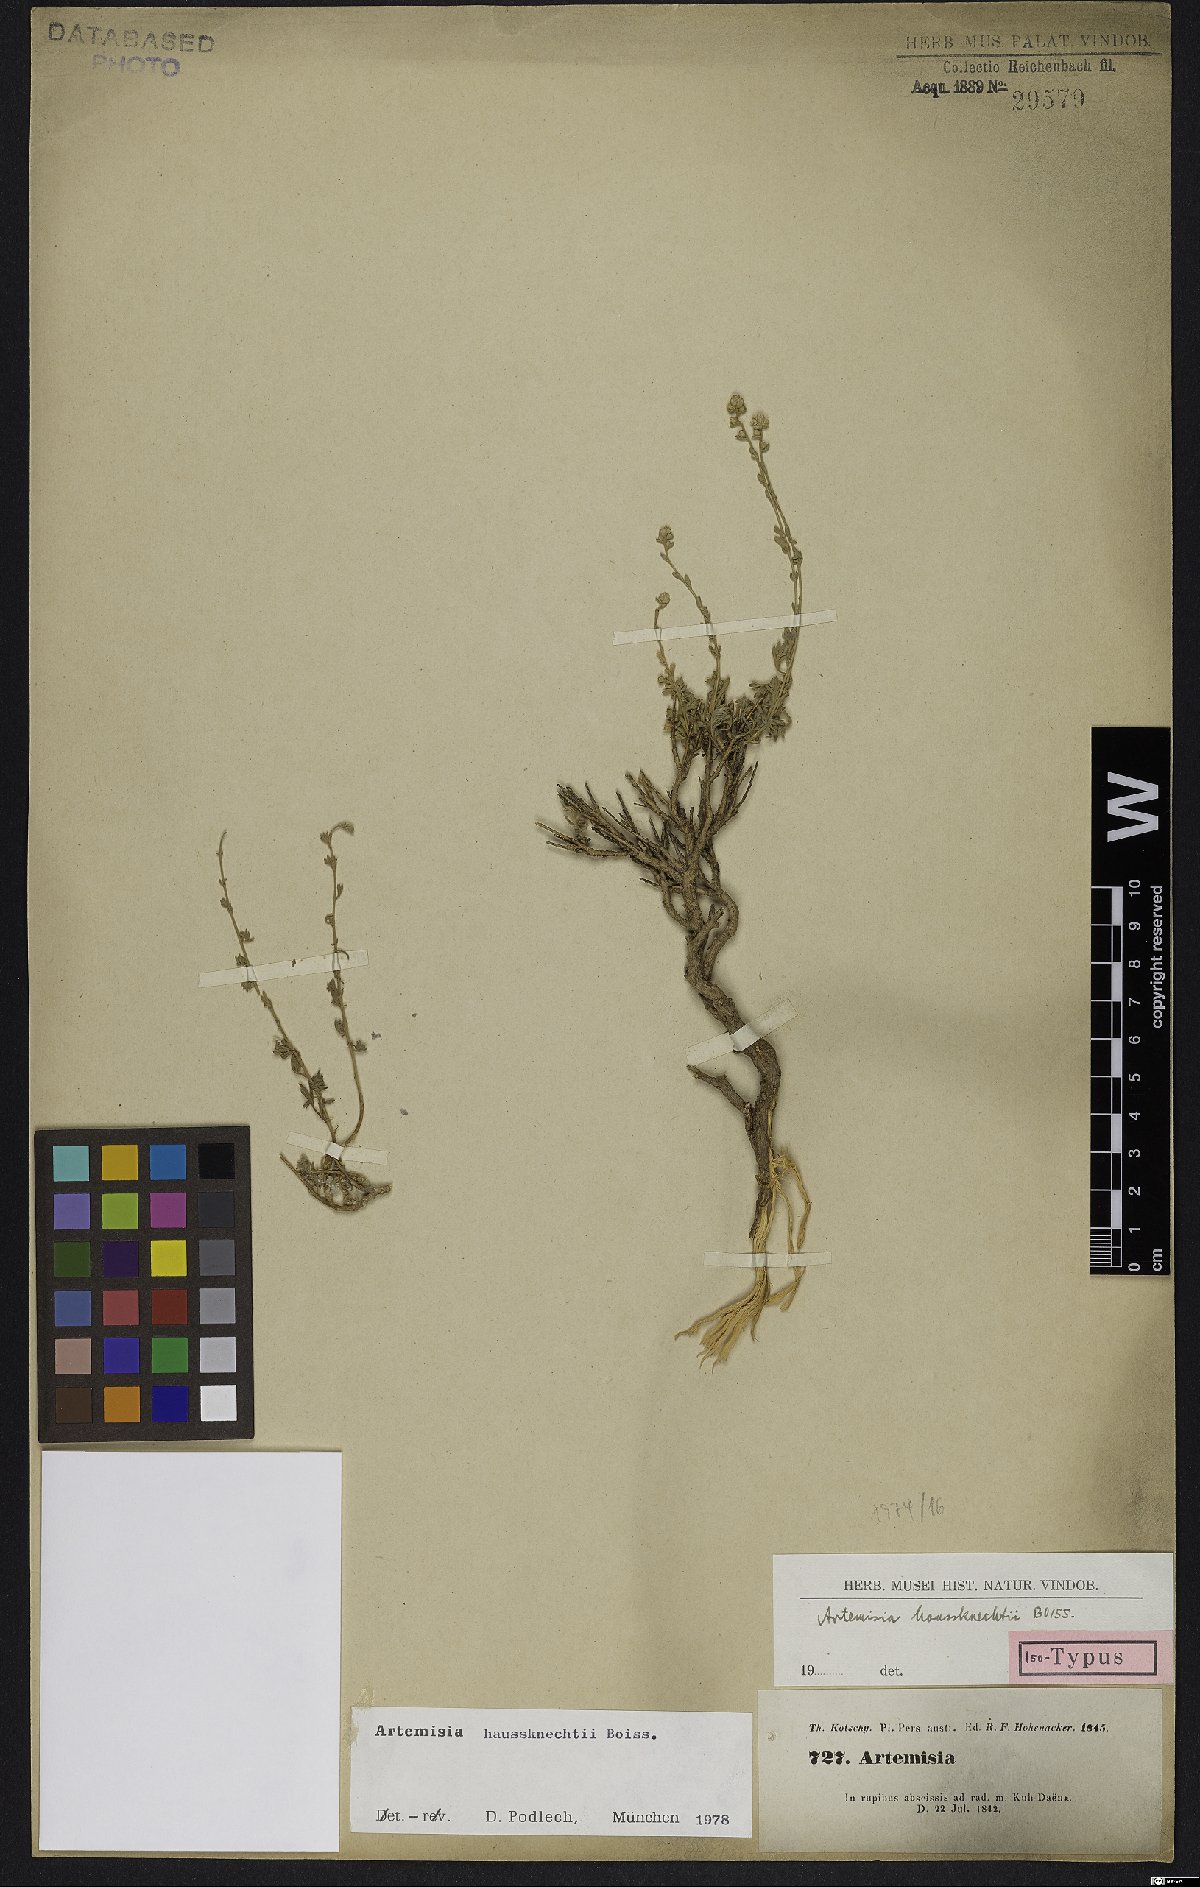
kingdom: Plantae
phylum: Tracheophyta
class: Magnoliopsida
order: Asterales
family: Asteraceae
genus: Artemisia
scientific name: Artemisia haussknechtii
